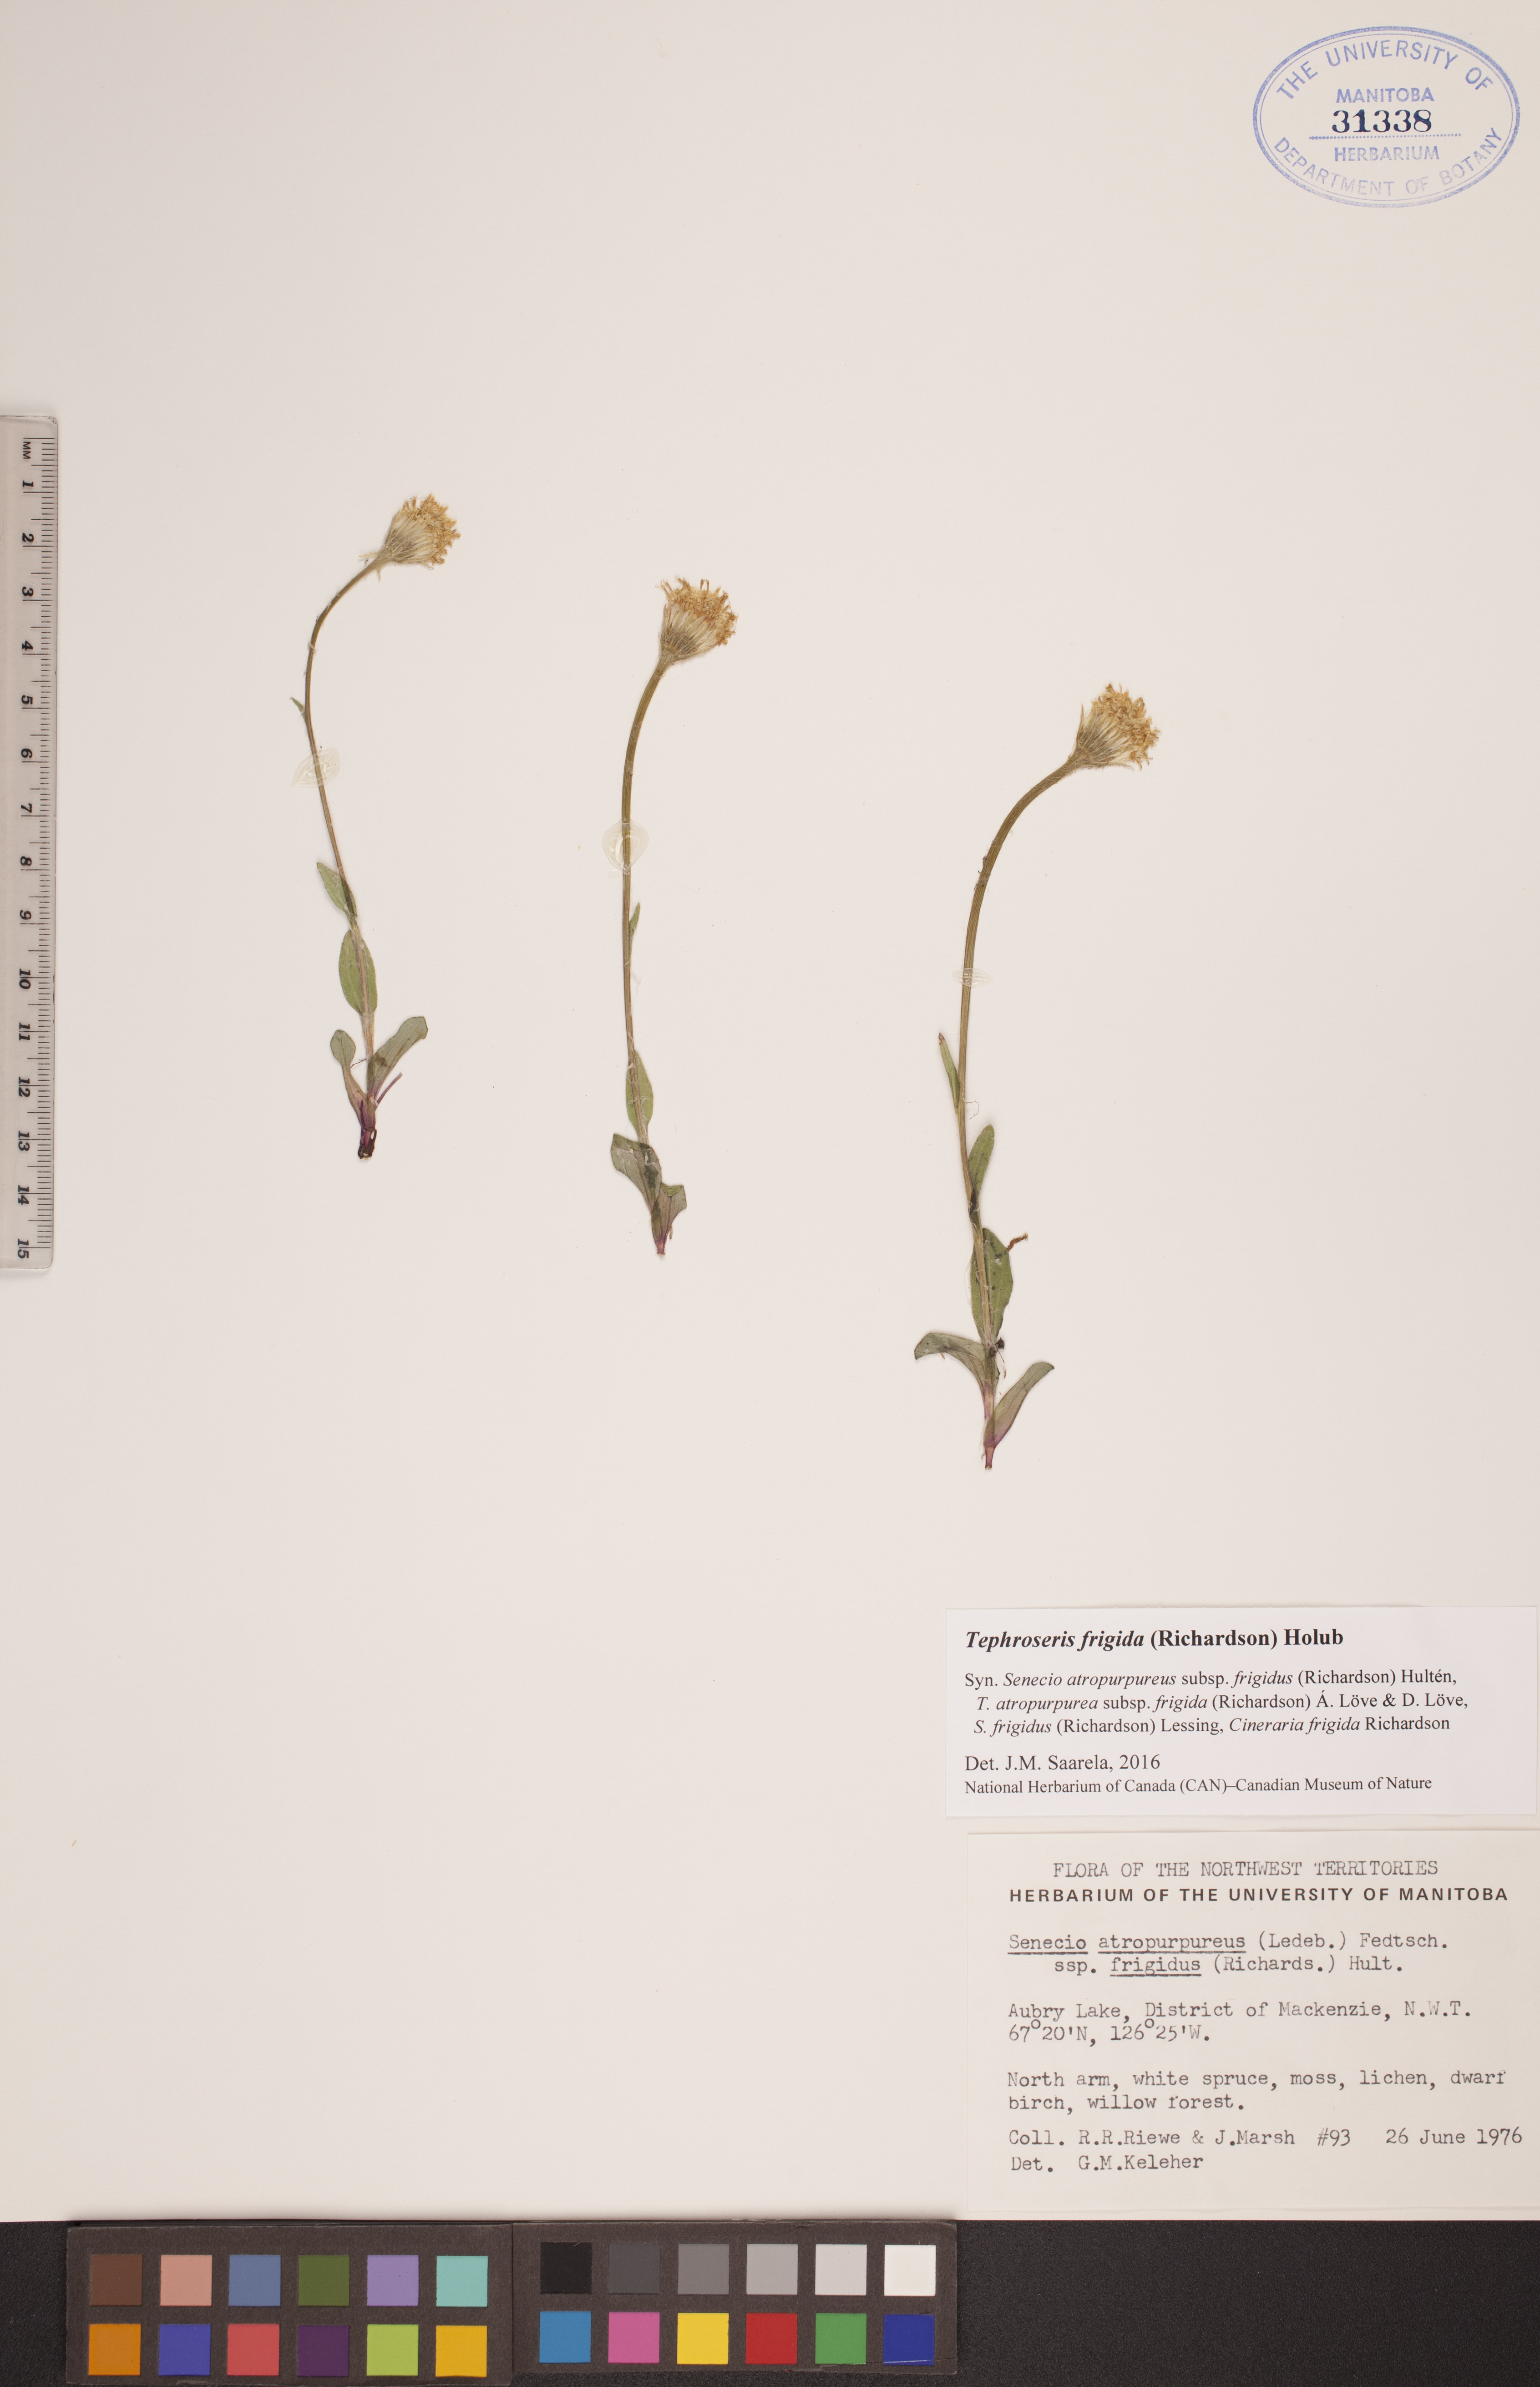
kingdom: Plantae
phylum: Tracheophyta
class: Magnoliopsida
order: Asterales
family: Asteraceae
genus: Tephroseris
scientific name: Tephroseris frigida
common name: Arctic groundsel
